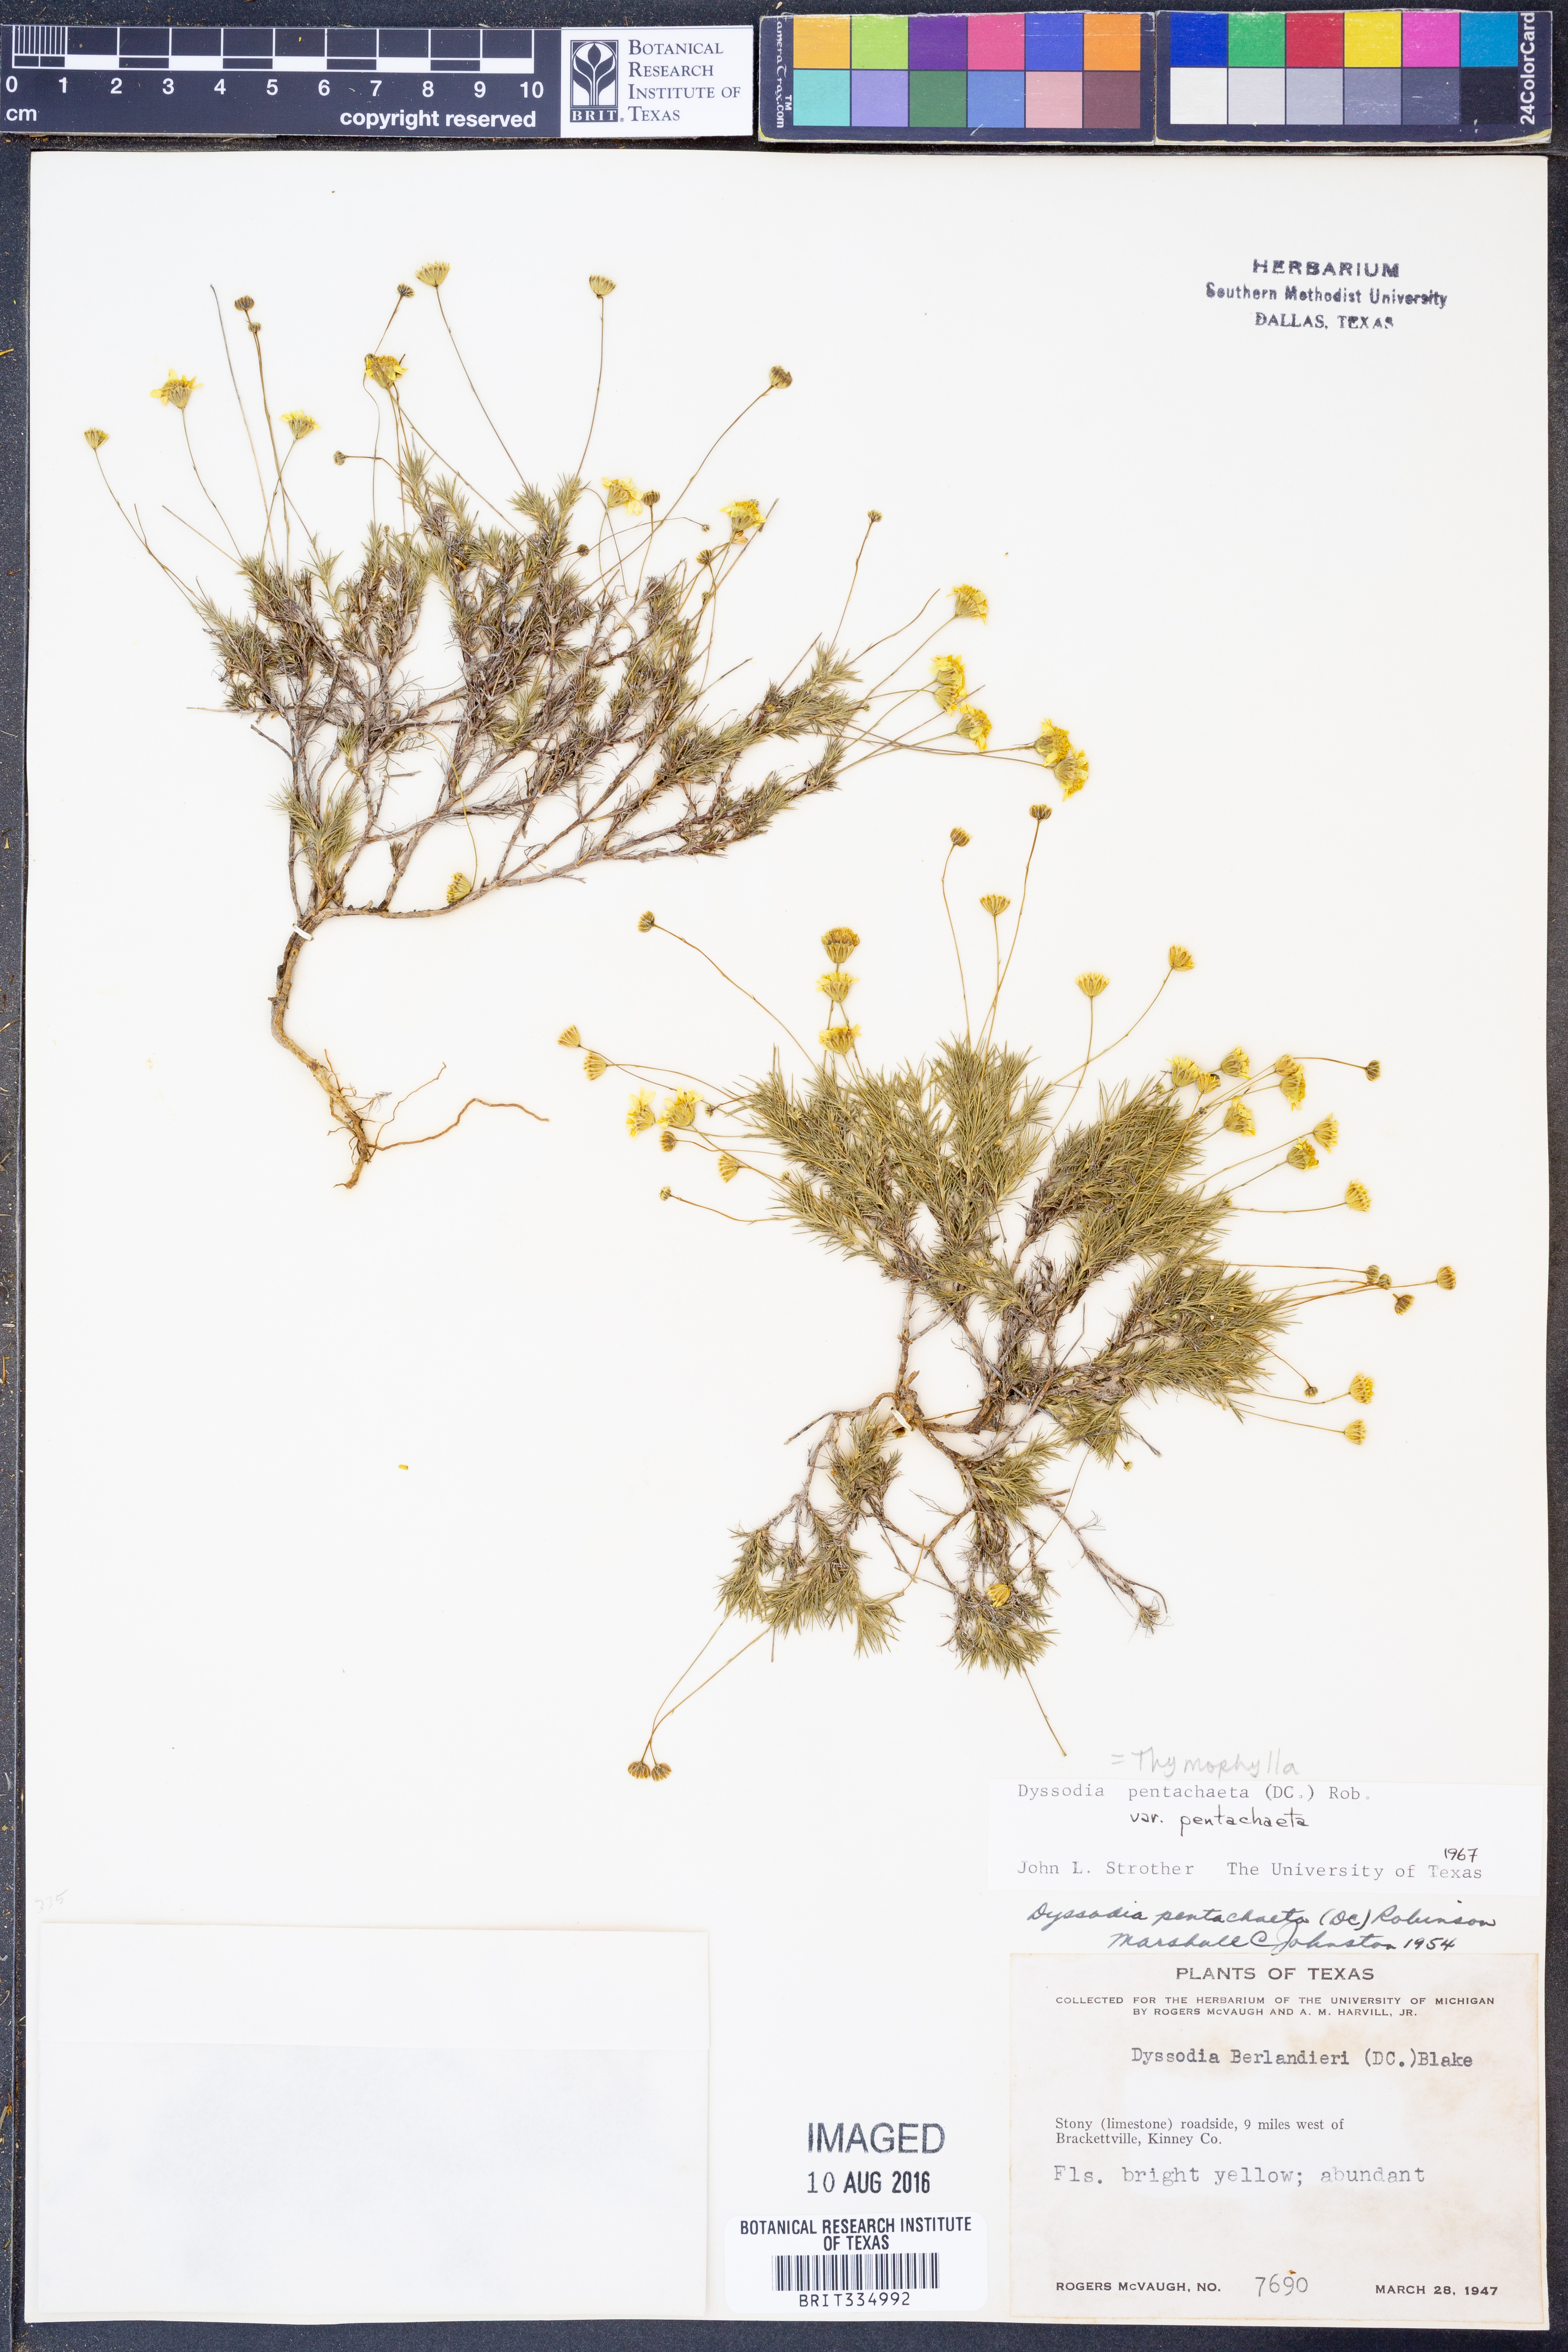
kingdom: Plantae
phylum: Tracheophyta
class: Magnoliopsida
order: Asterales
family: Asteraceae
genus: Thymophylla
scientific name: Thymophylla pentachaeta
